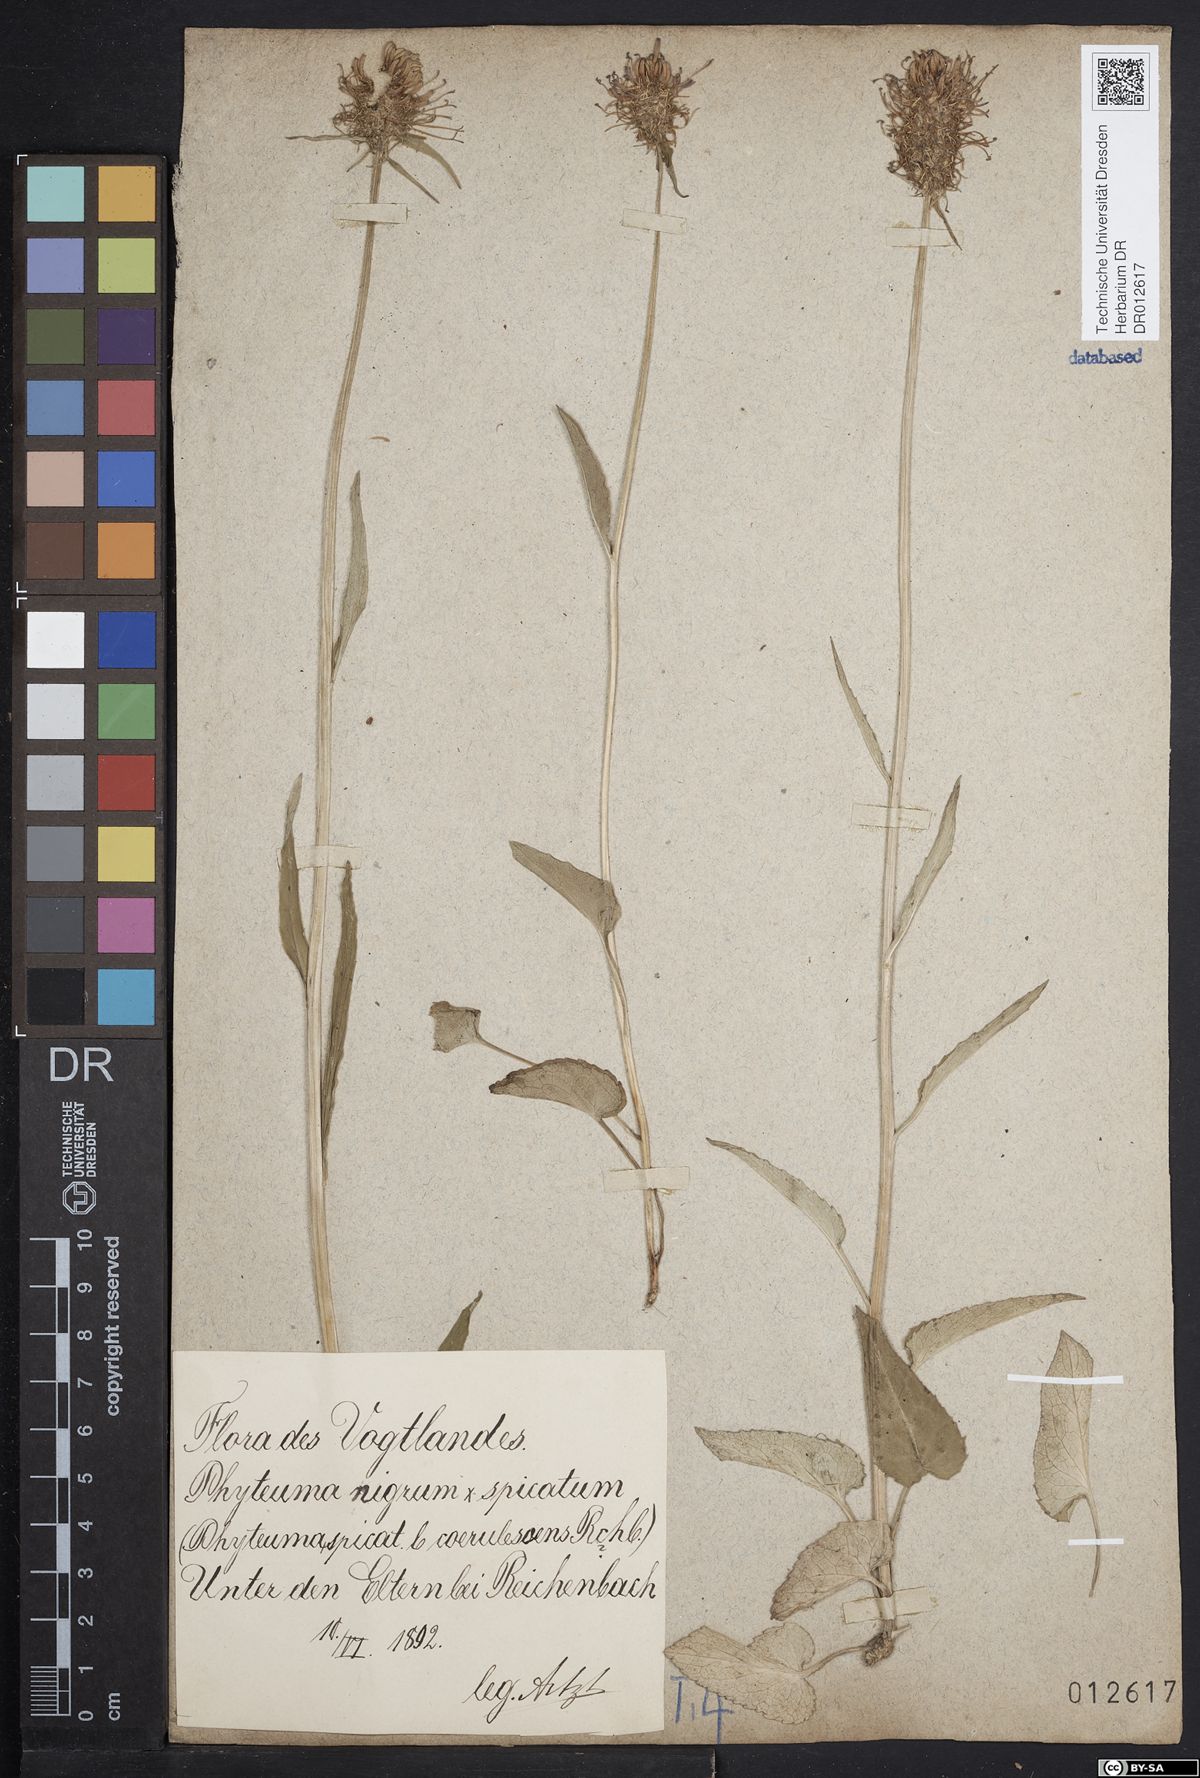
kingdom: Plantae
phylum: Tracheophyta
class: Magnoliopsida
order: Asterales
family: Campanulaceae
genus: Phyteuma
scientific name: Phyteuma adulterinum
